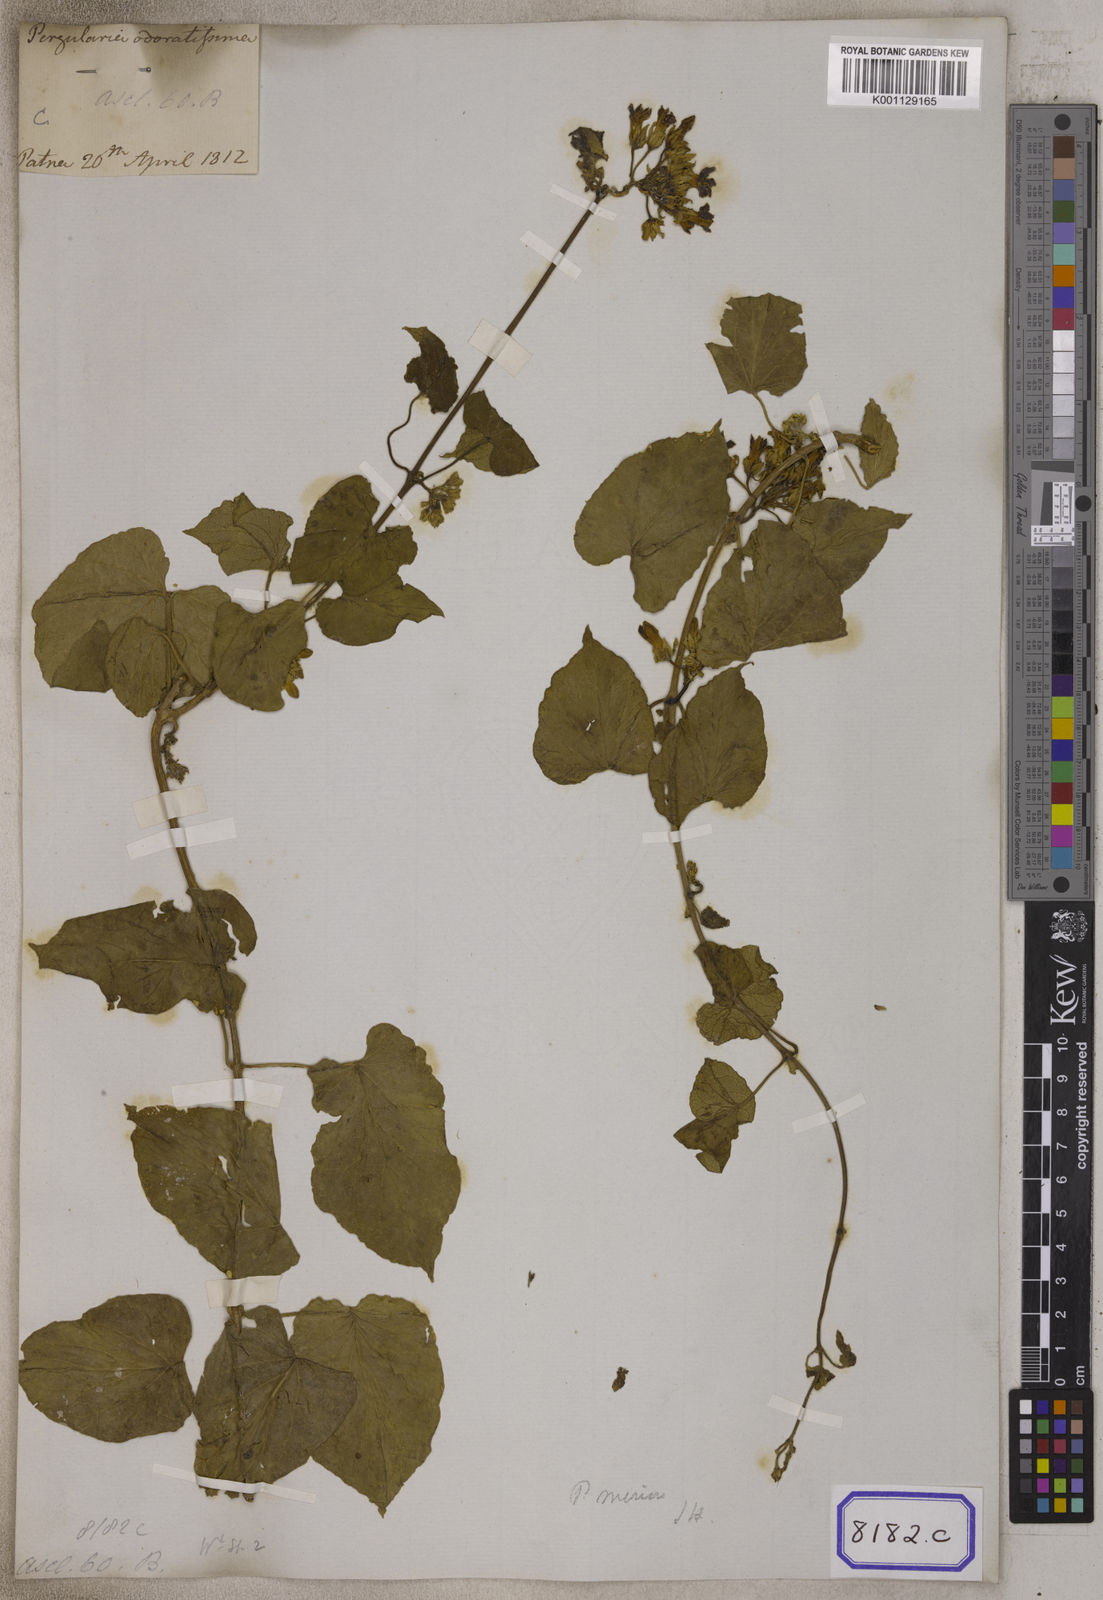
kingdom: Plantae
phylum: Tracheophyta
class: Magnoliopsida
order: Gentianales
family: Apocynaceae
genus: Telosma
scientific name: Telosma cordata
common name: Chinese-violet
